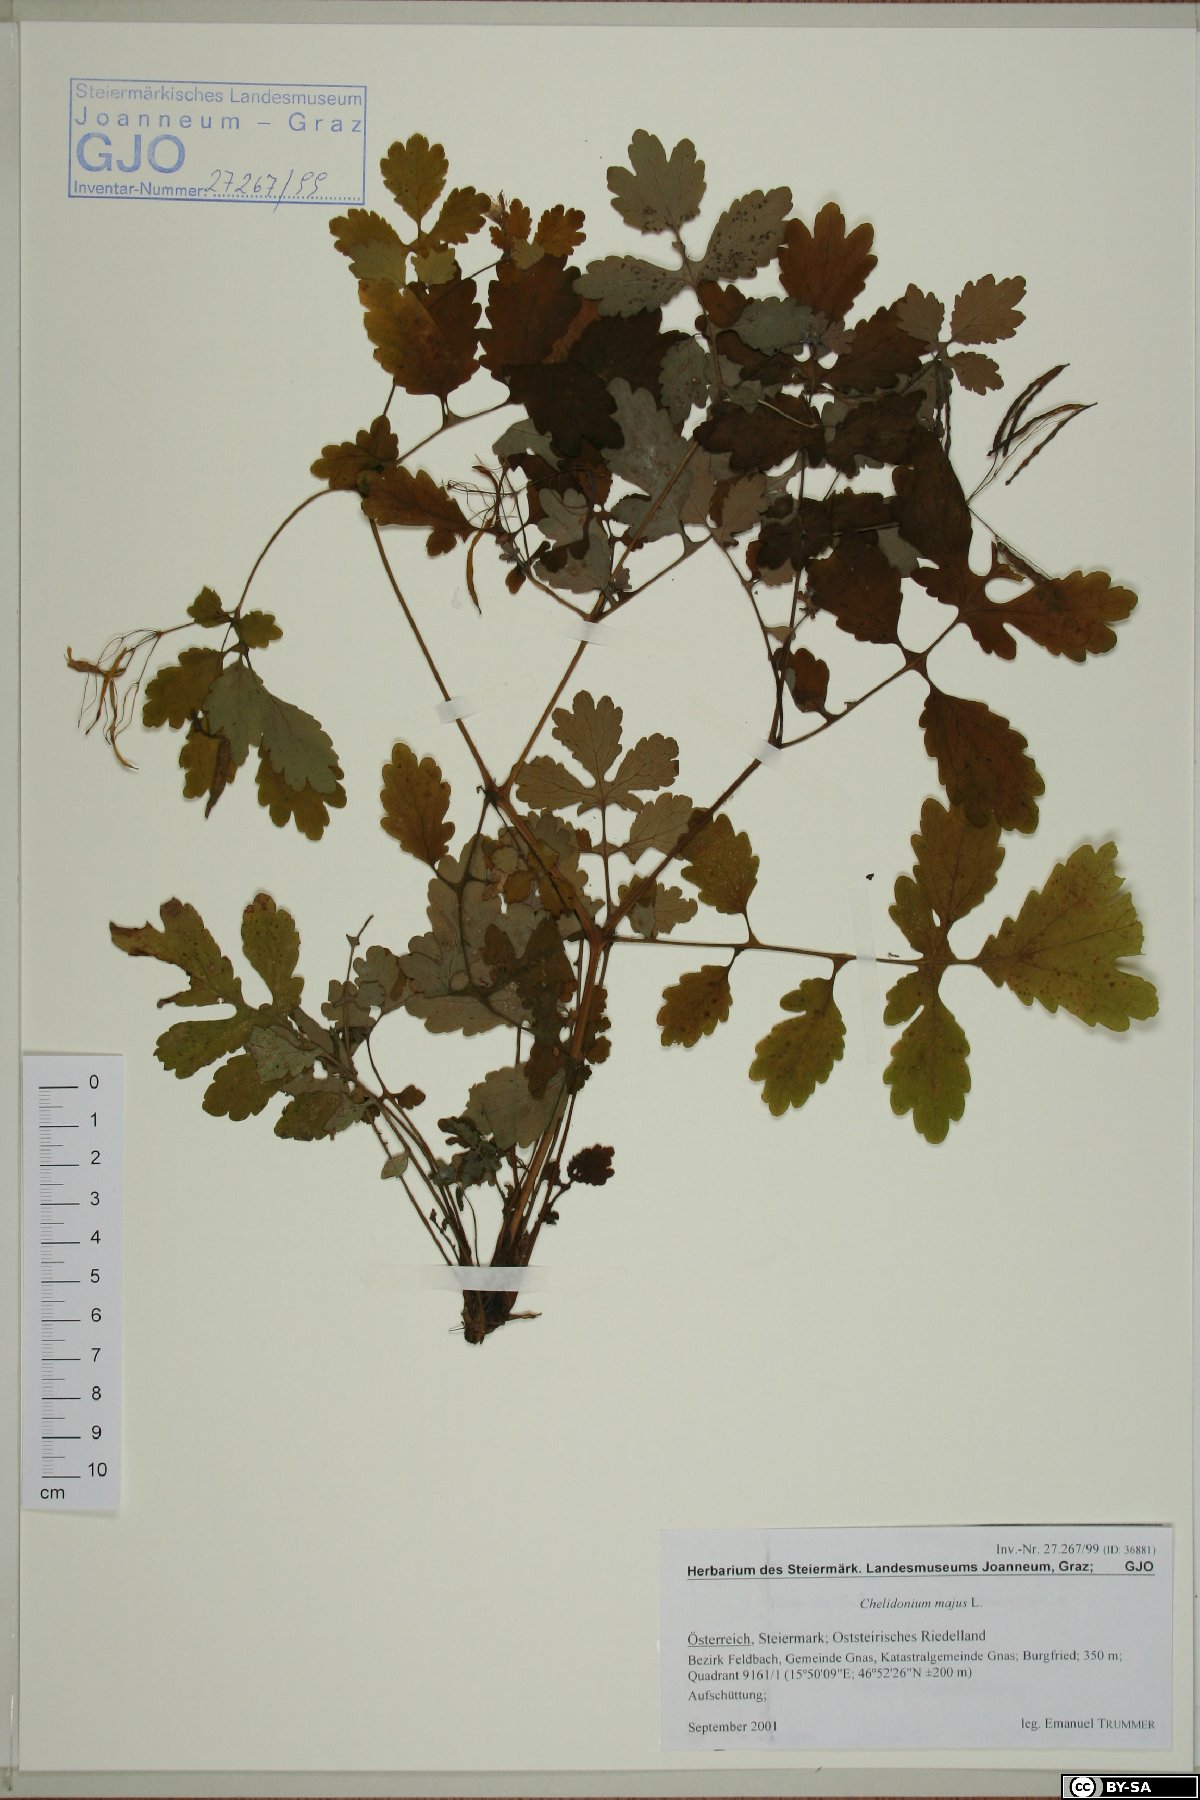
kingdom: Plantae
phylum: Tracheophyta
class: Magnoliopsida
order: Ranunculales
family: Papaveraceae
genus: Chelidonium
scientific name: Chelidonium majus
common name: Greater celandine
